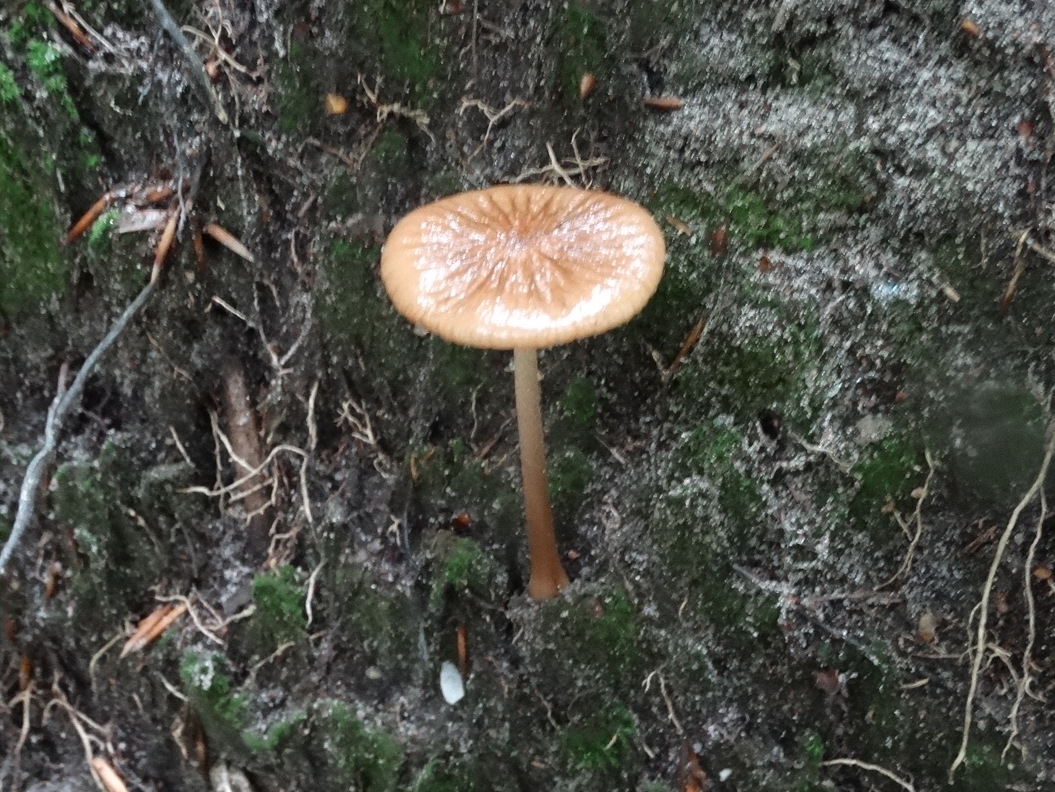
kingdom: Fungi
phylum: Basidiomycota
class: Agaricomycetes
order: Agaricales
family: Physalacriaceae
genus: Hymenopellis
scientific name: Hymenopellis radicata
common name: almindelig pælerodshat
